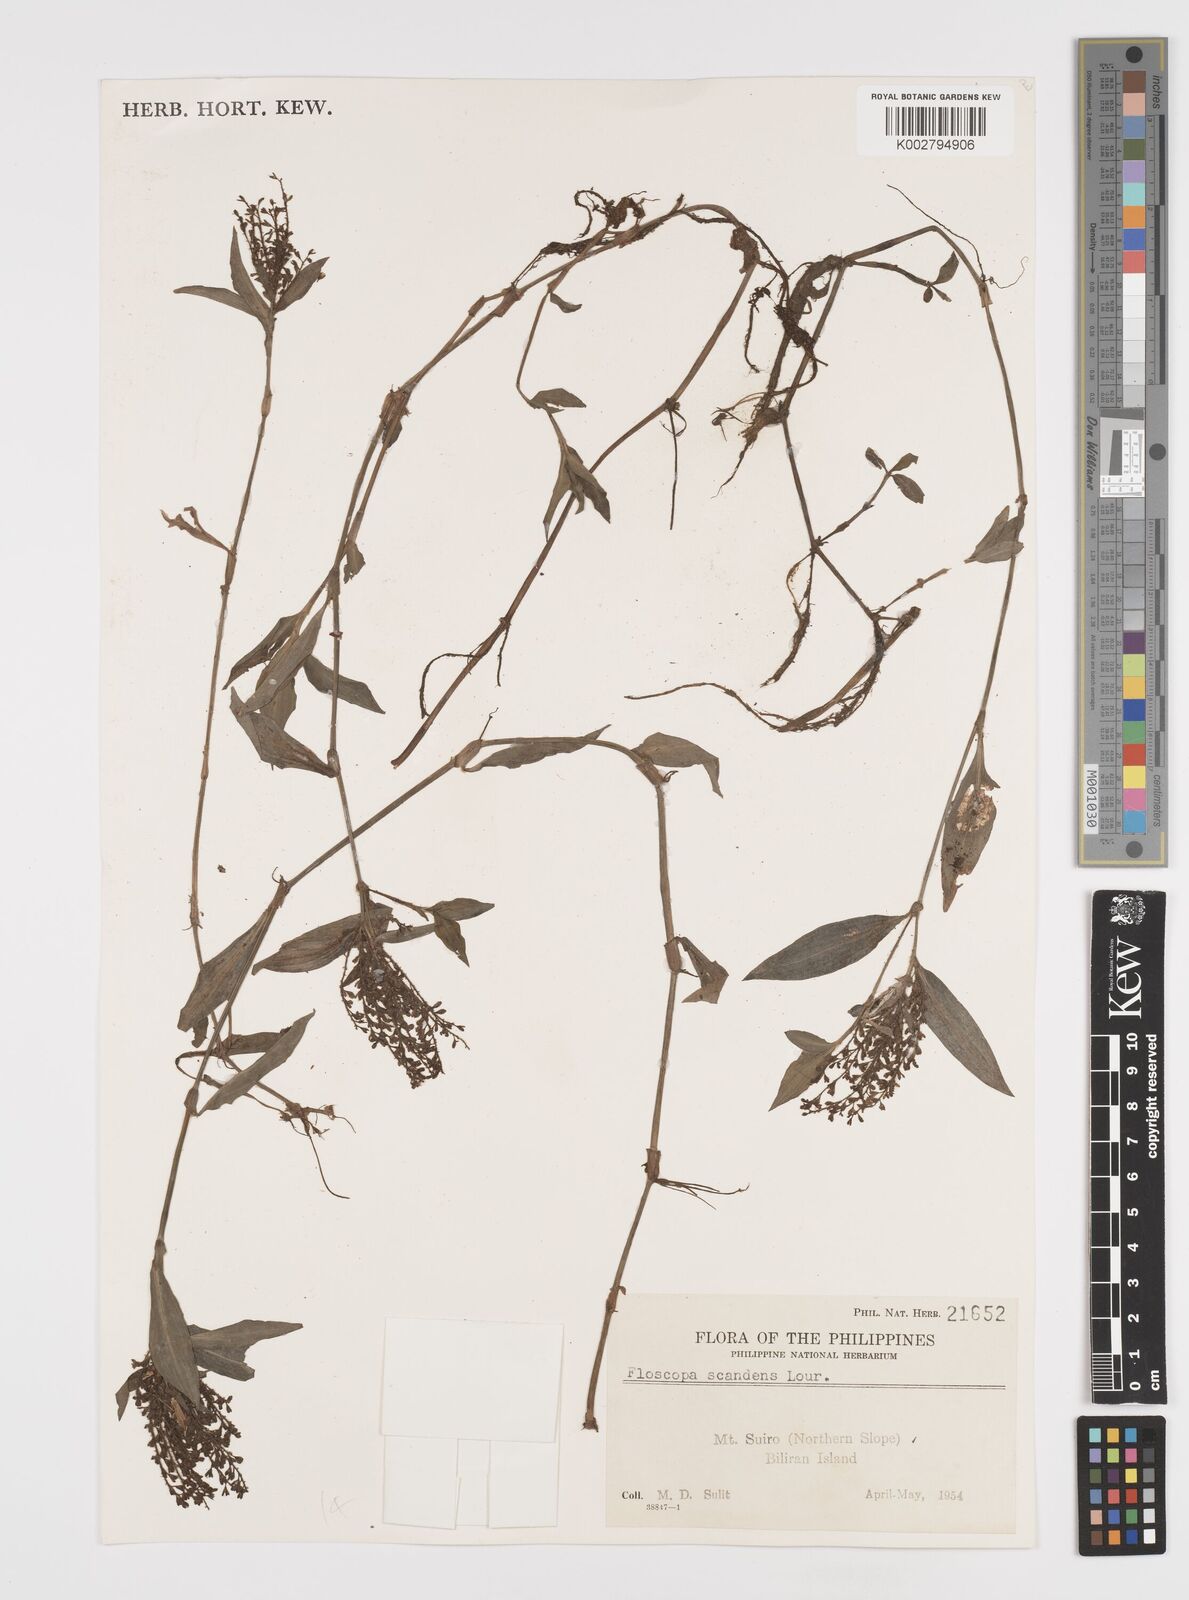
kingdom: Plantae
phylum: Tracheophyta
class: Liliopsida
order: Commelinales
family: Commelinaceae
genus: Floscopa
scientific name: Floscopa scandens
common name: Climbing flower cup
